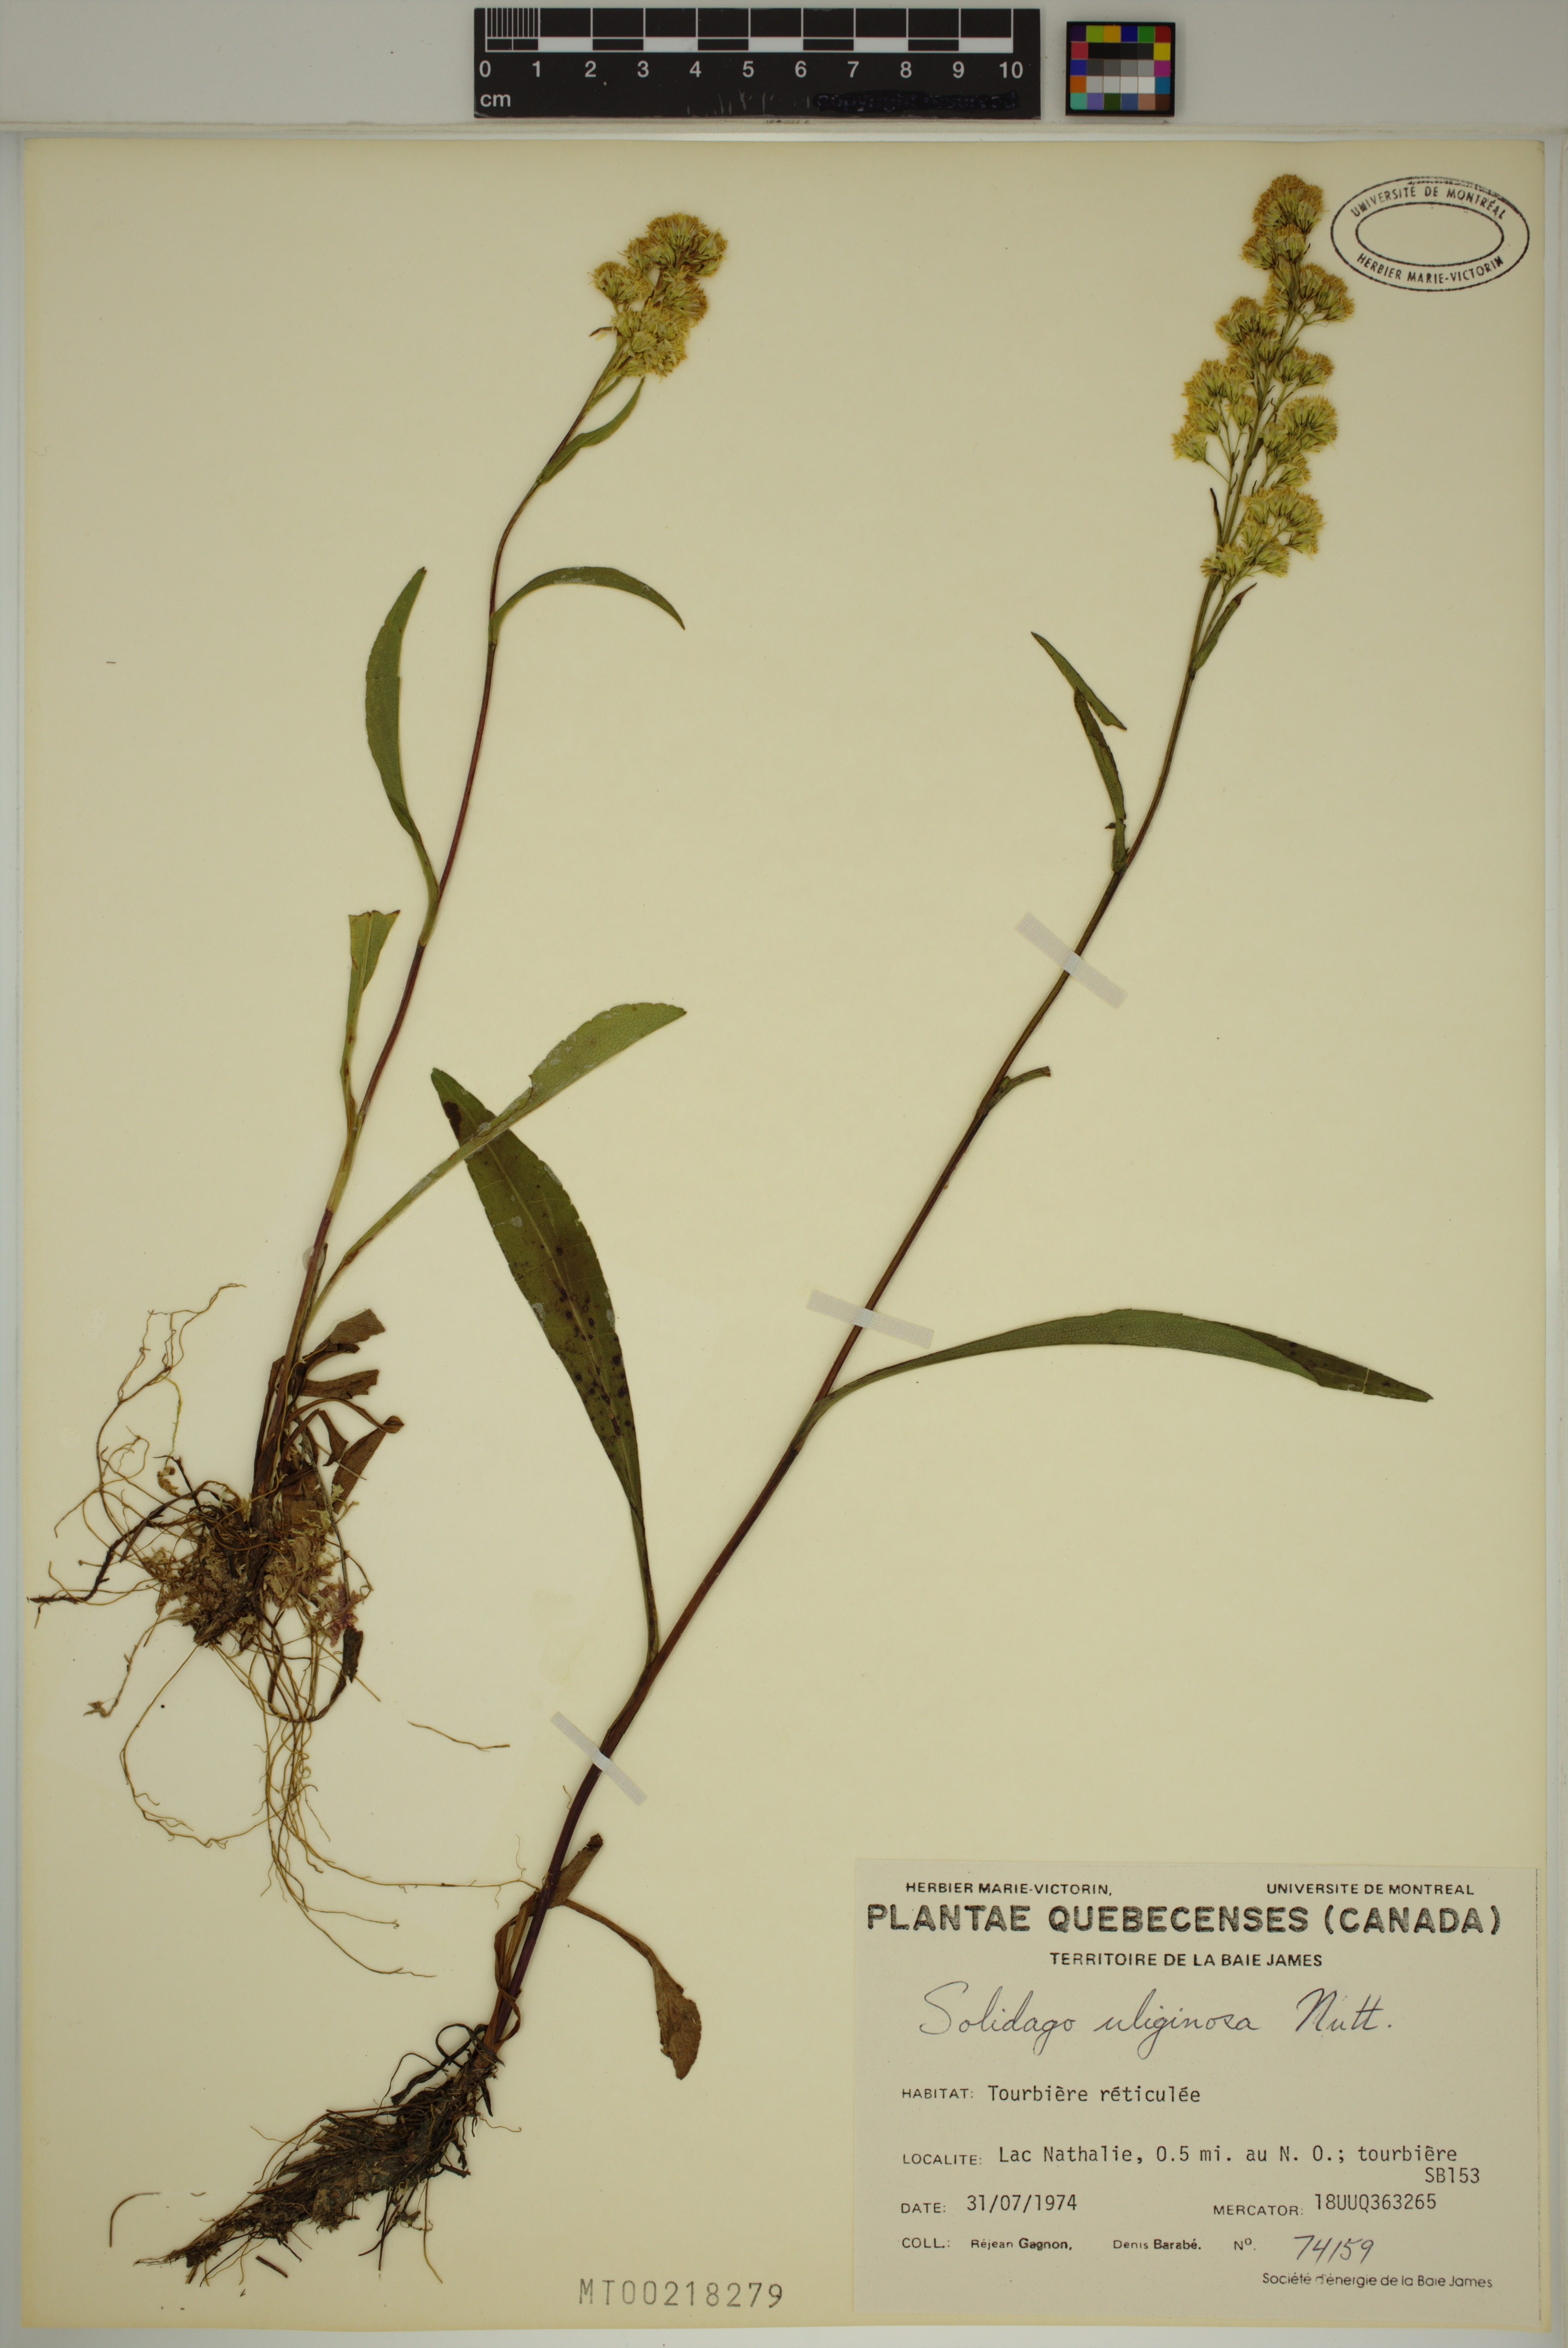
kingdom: Plantae
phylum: Tracheophyta
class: Magnoliopsida
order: Asterales
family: Asteraceae
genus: Solidago
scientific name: Solidago uliginosa
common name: Bog goldenrod
